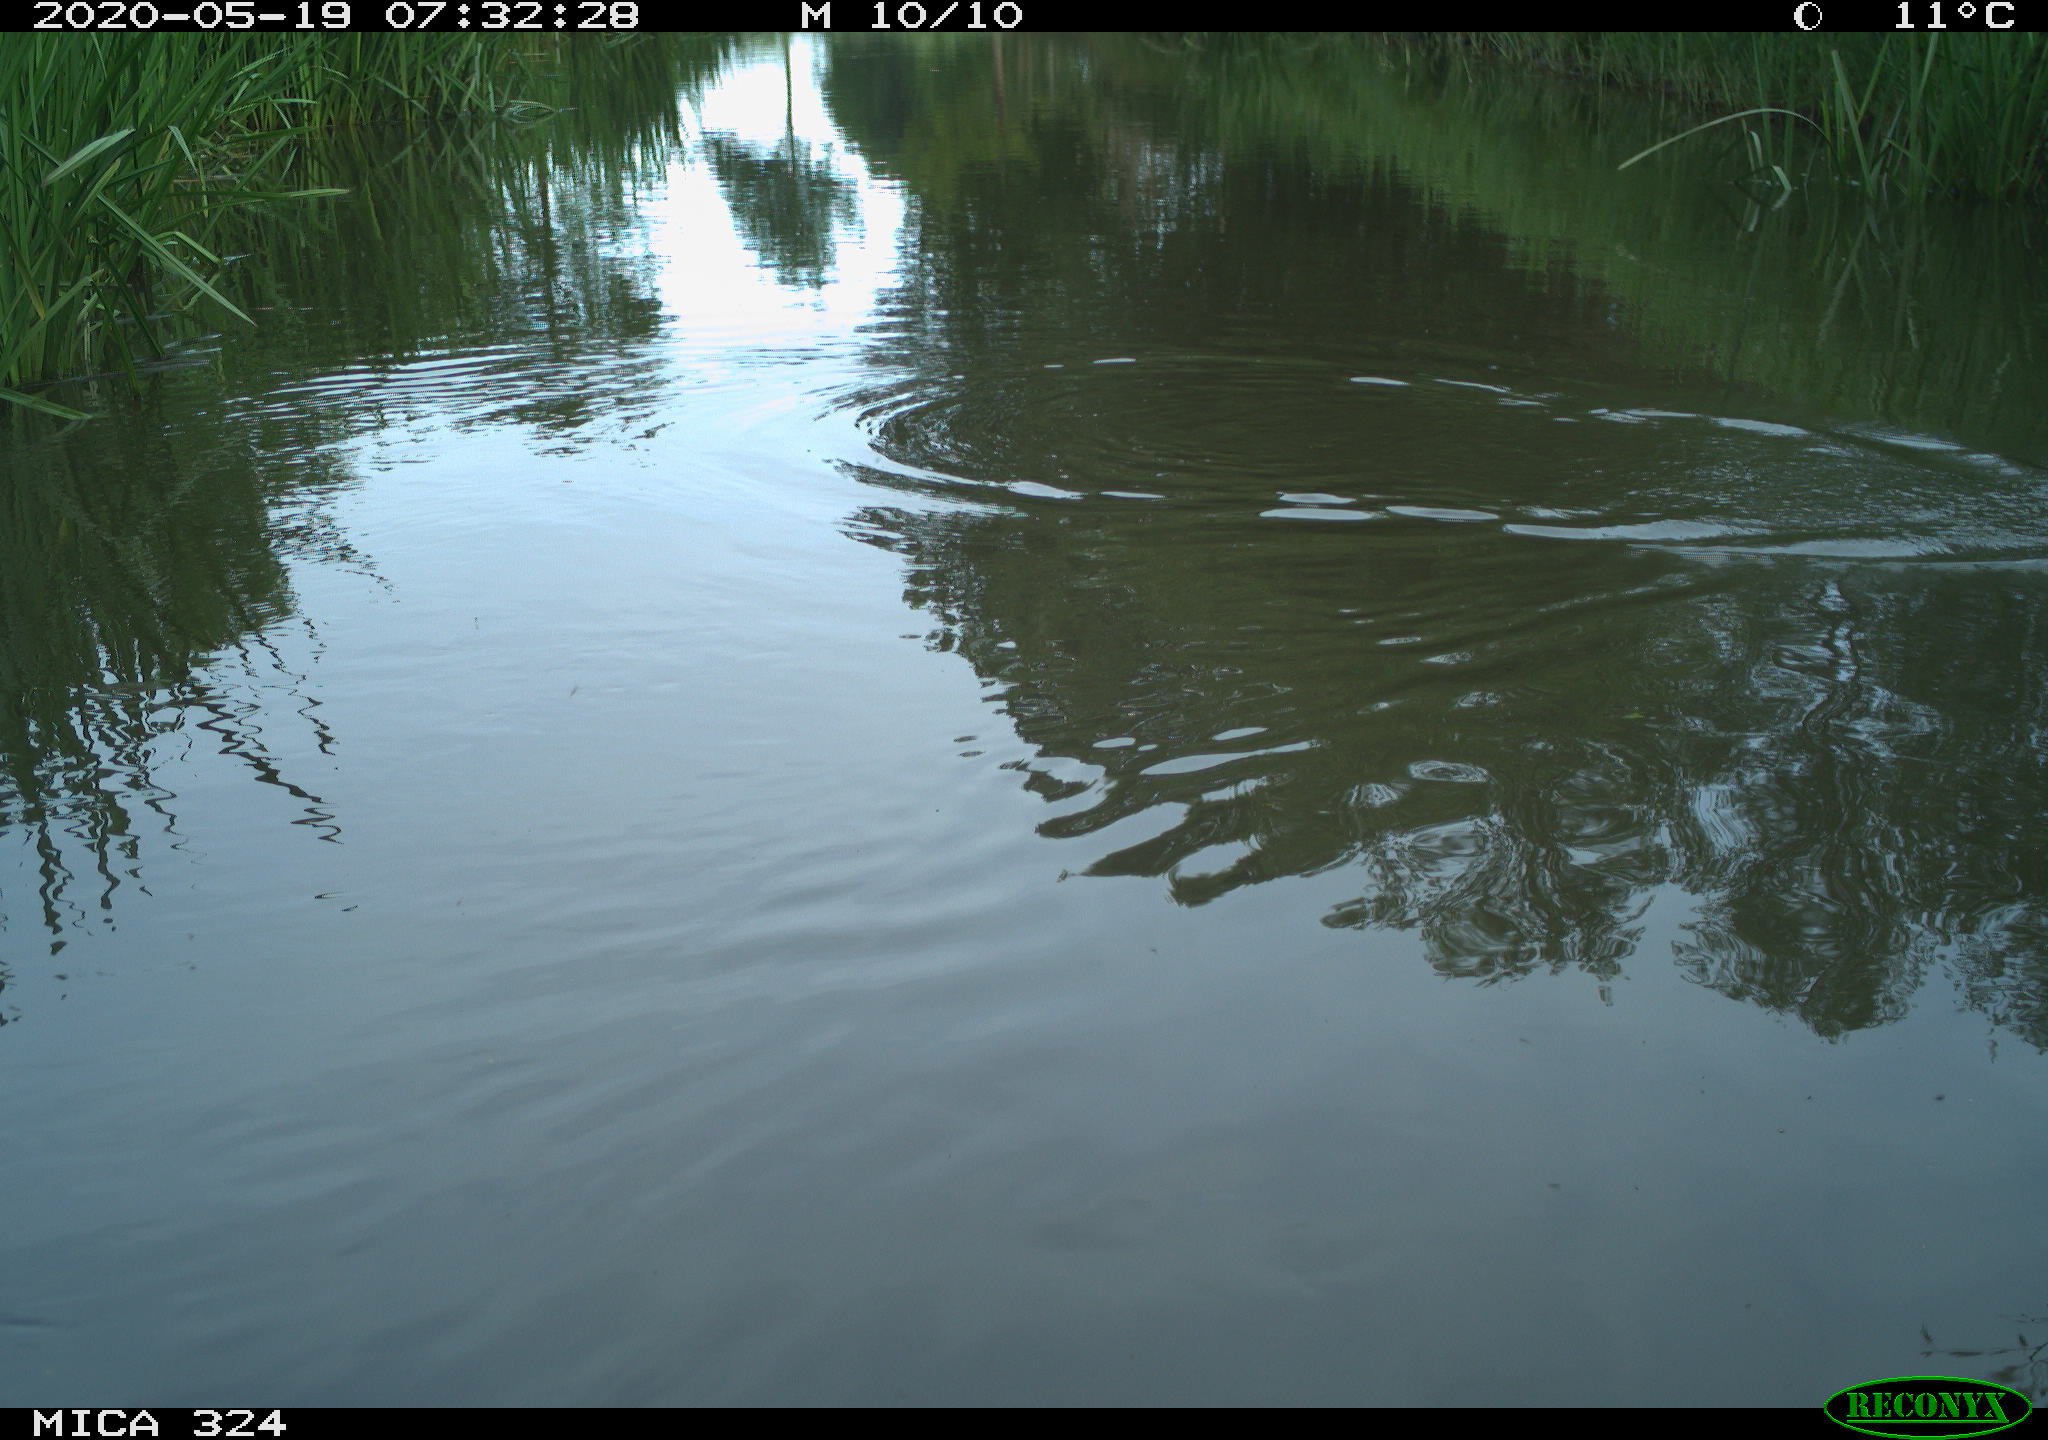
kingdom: Animalia
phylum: Chordata
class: Aves
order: Gruiformes
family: Rallidae
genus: Gallinula
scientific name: Gallinula chloropus
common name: Common moorhen
